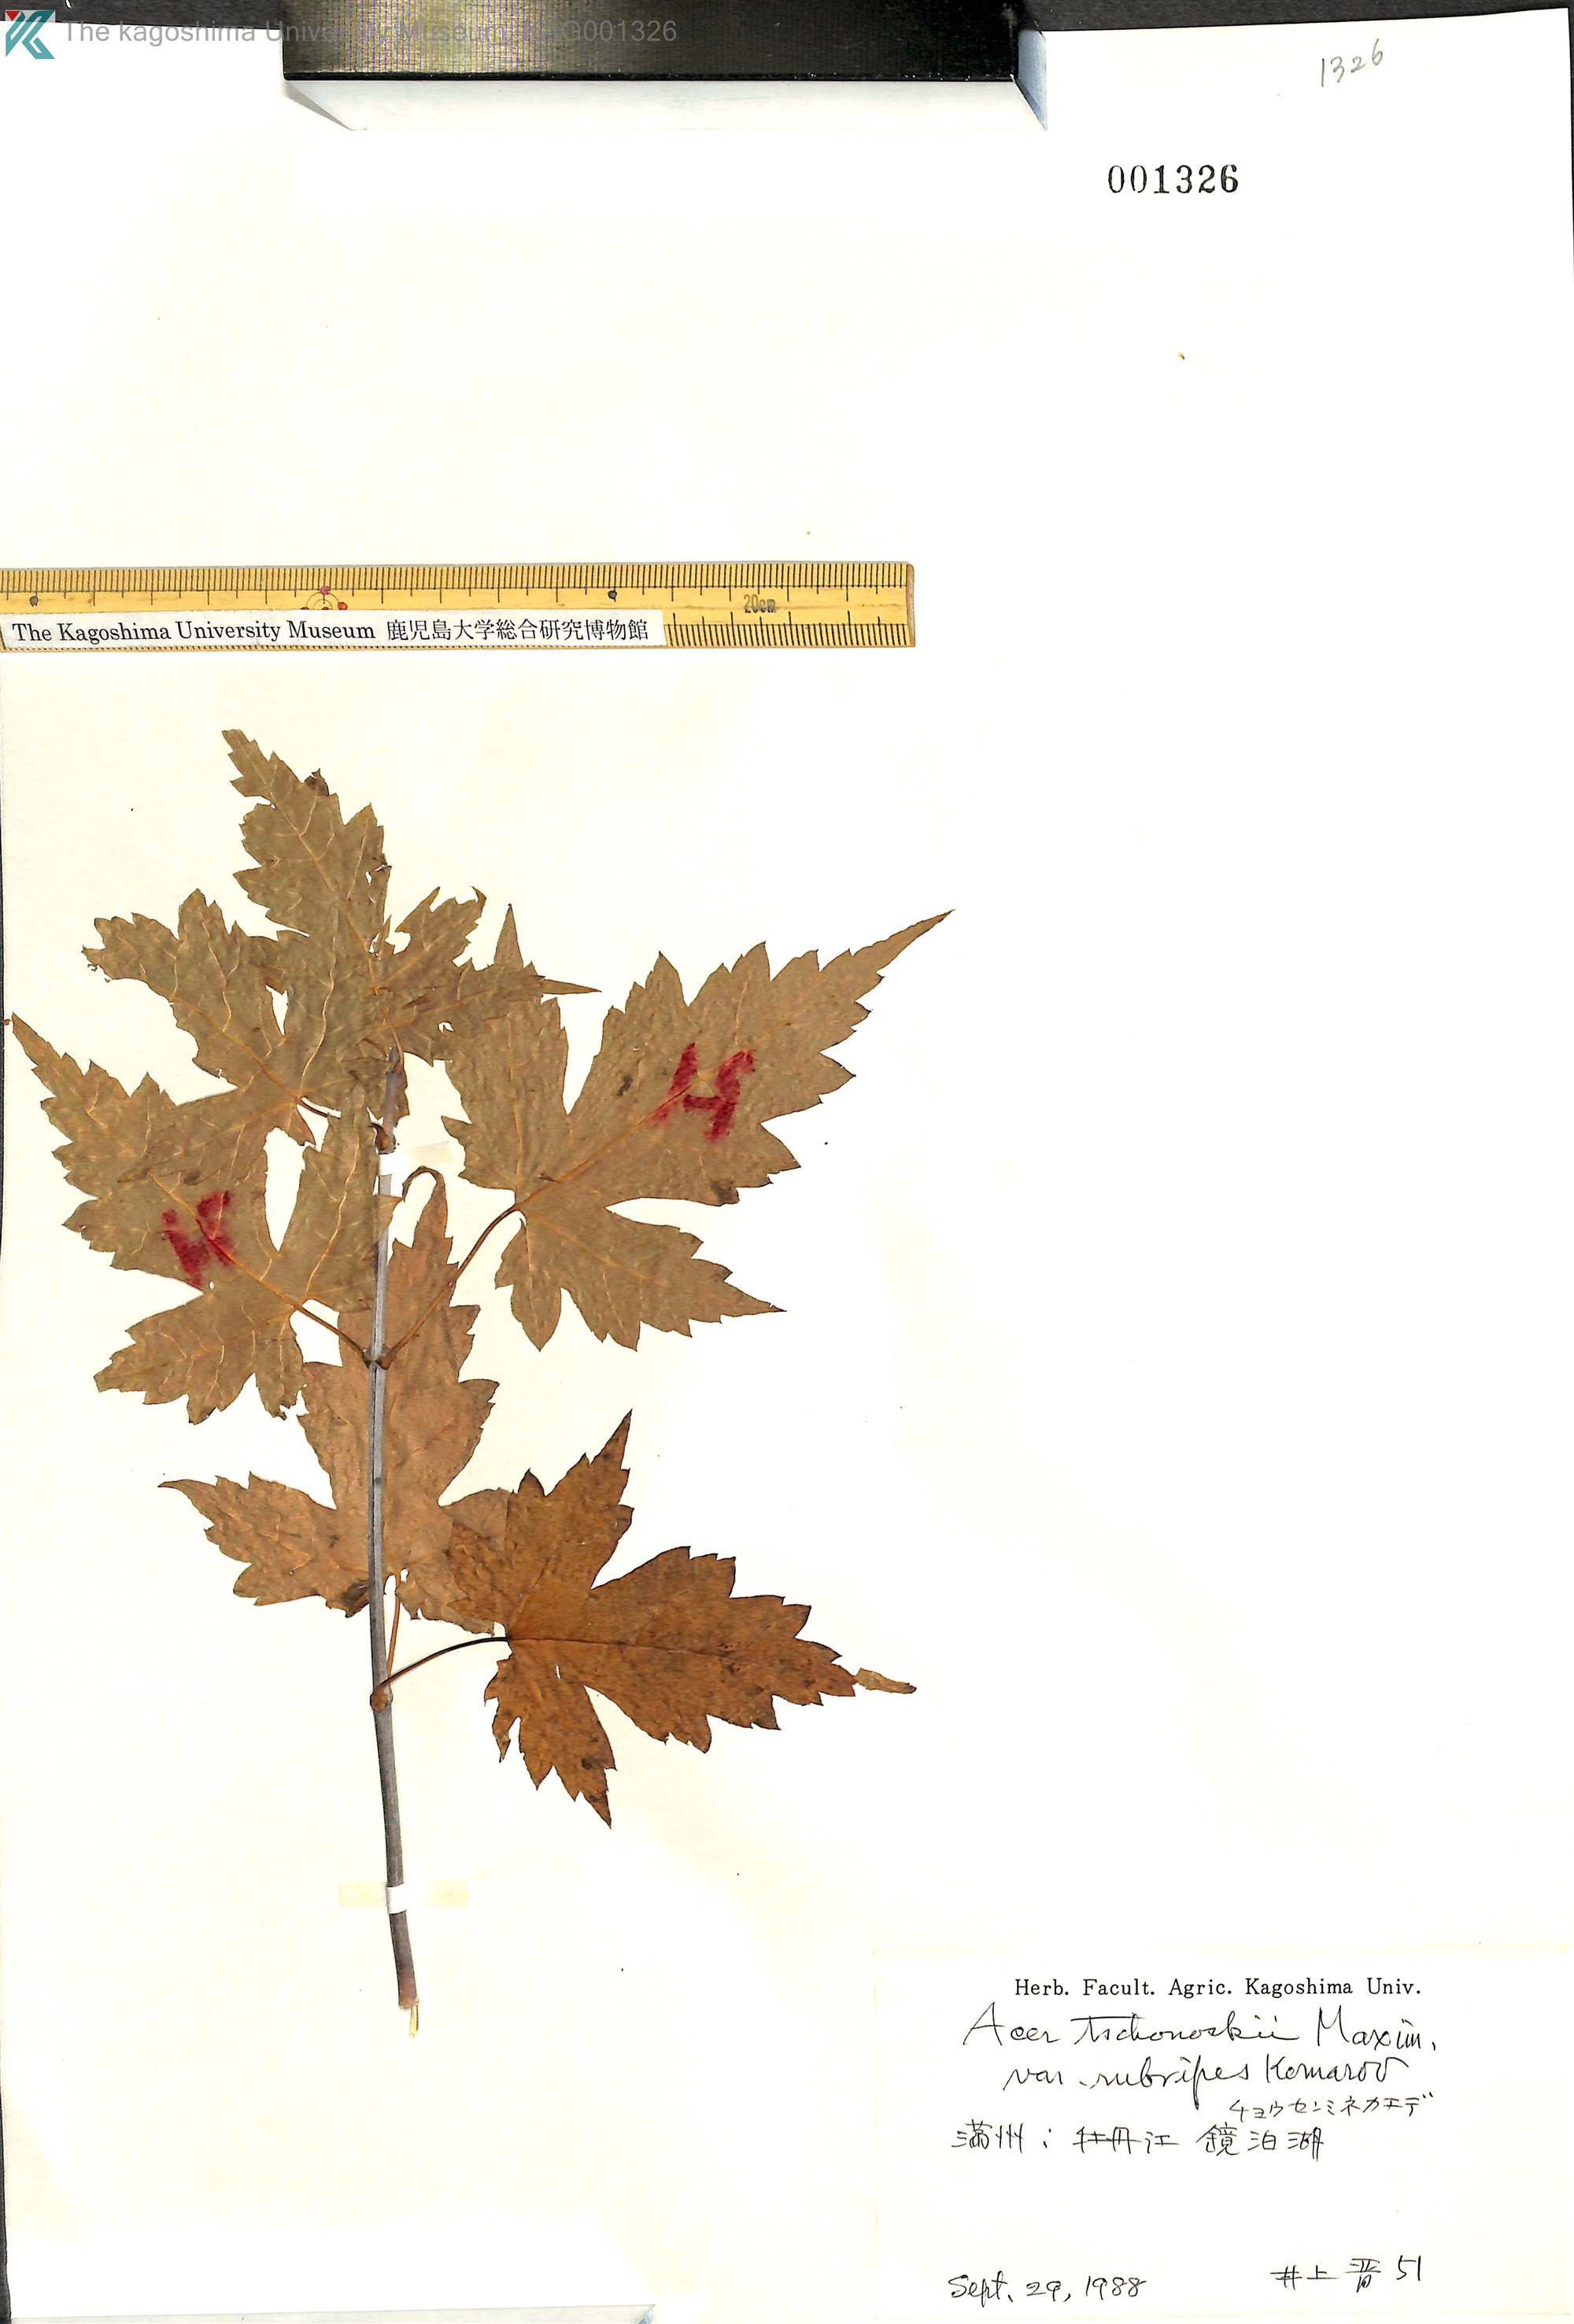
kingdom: Plantae
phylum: Tracheophyta
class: Magnoliopsida
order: Sapindales
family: Sapindaceae
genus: Acer
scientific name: Acer komarovii
